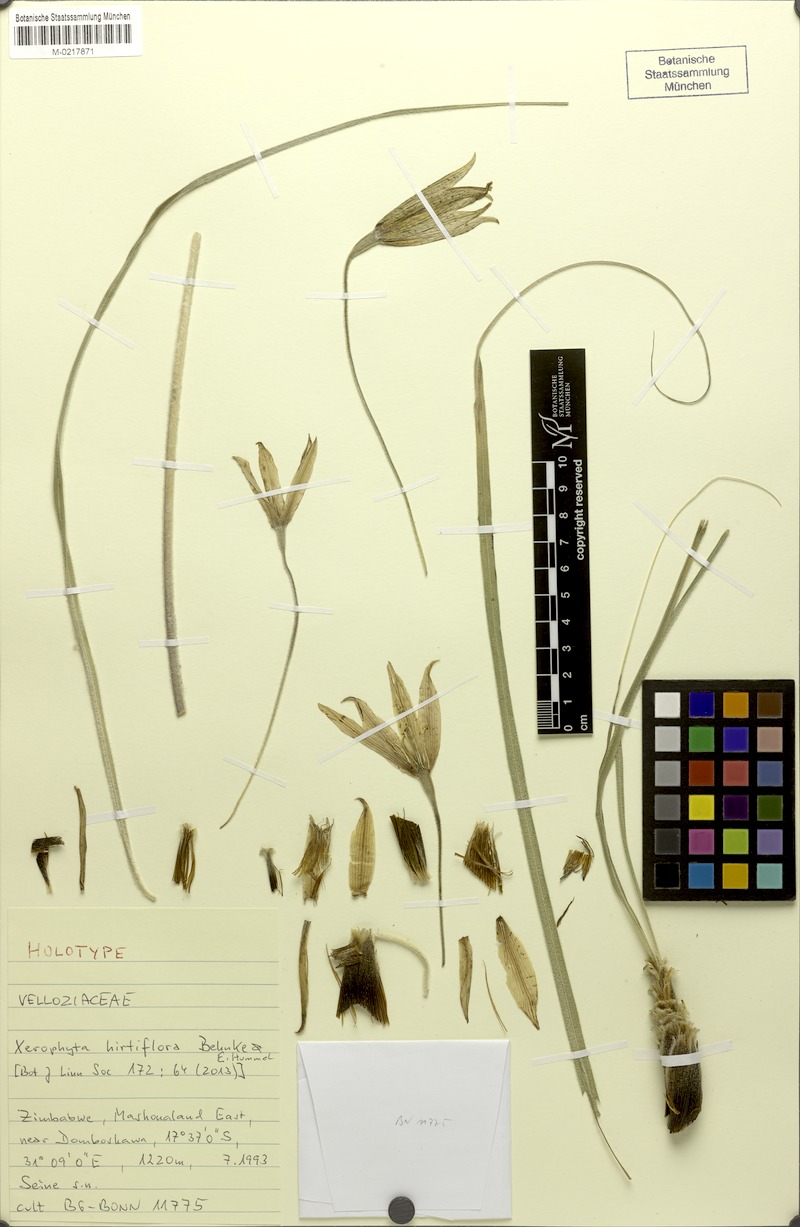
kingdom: Plantae
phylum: Tracheophyta
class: Liliopsida
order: Pandanales
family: Velloziaceae
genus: Xerophyta
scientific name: Xerophyta hirtiflora
